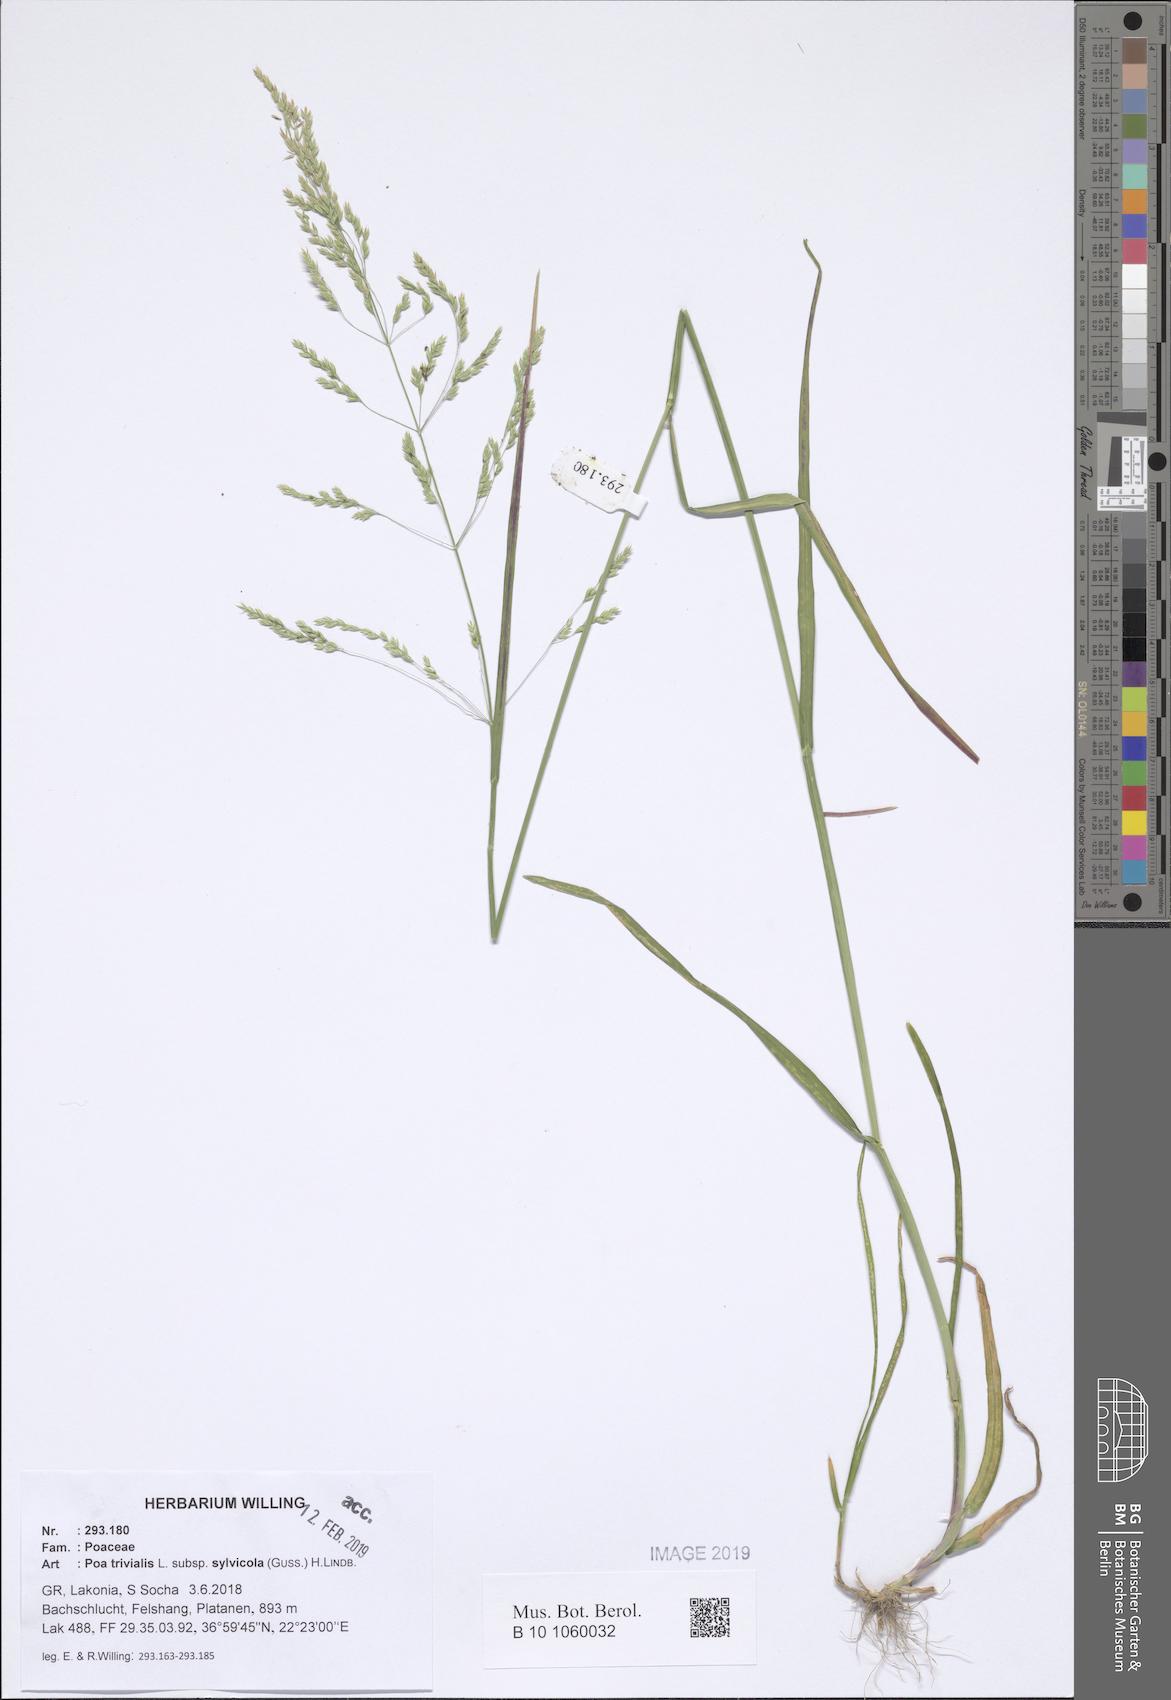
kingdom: Plantae
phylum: Tracheophyta
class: Liliopsida
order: Poales
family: Poaceae
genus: Poa
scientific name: Poa trivialis
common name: Rough bluegrass
